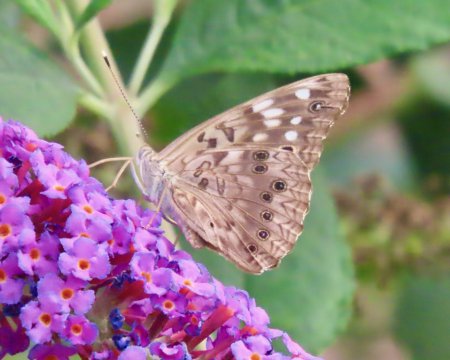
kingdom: Animalia
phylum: Arthropoda
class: Insecta
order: Lepidoptera
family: Nymphalidae
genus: Asterocampa
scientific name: Asterocampa celtis
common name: Hackberry Emperor
